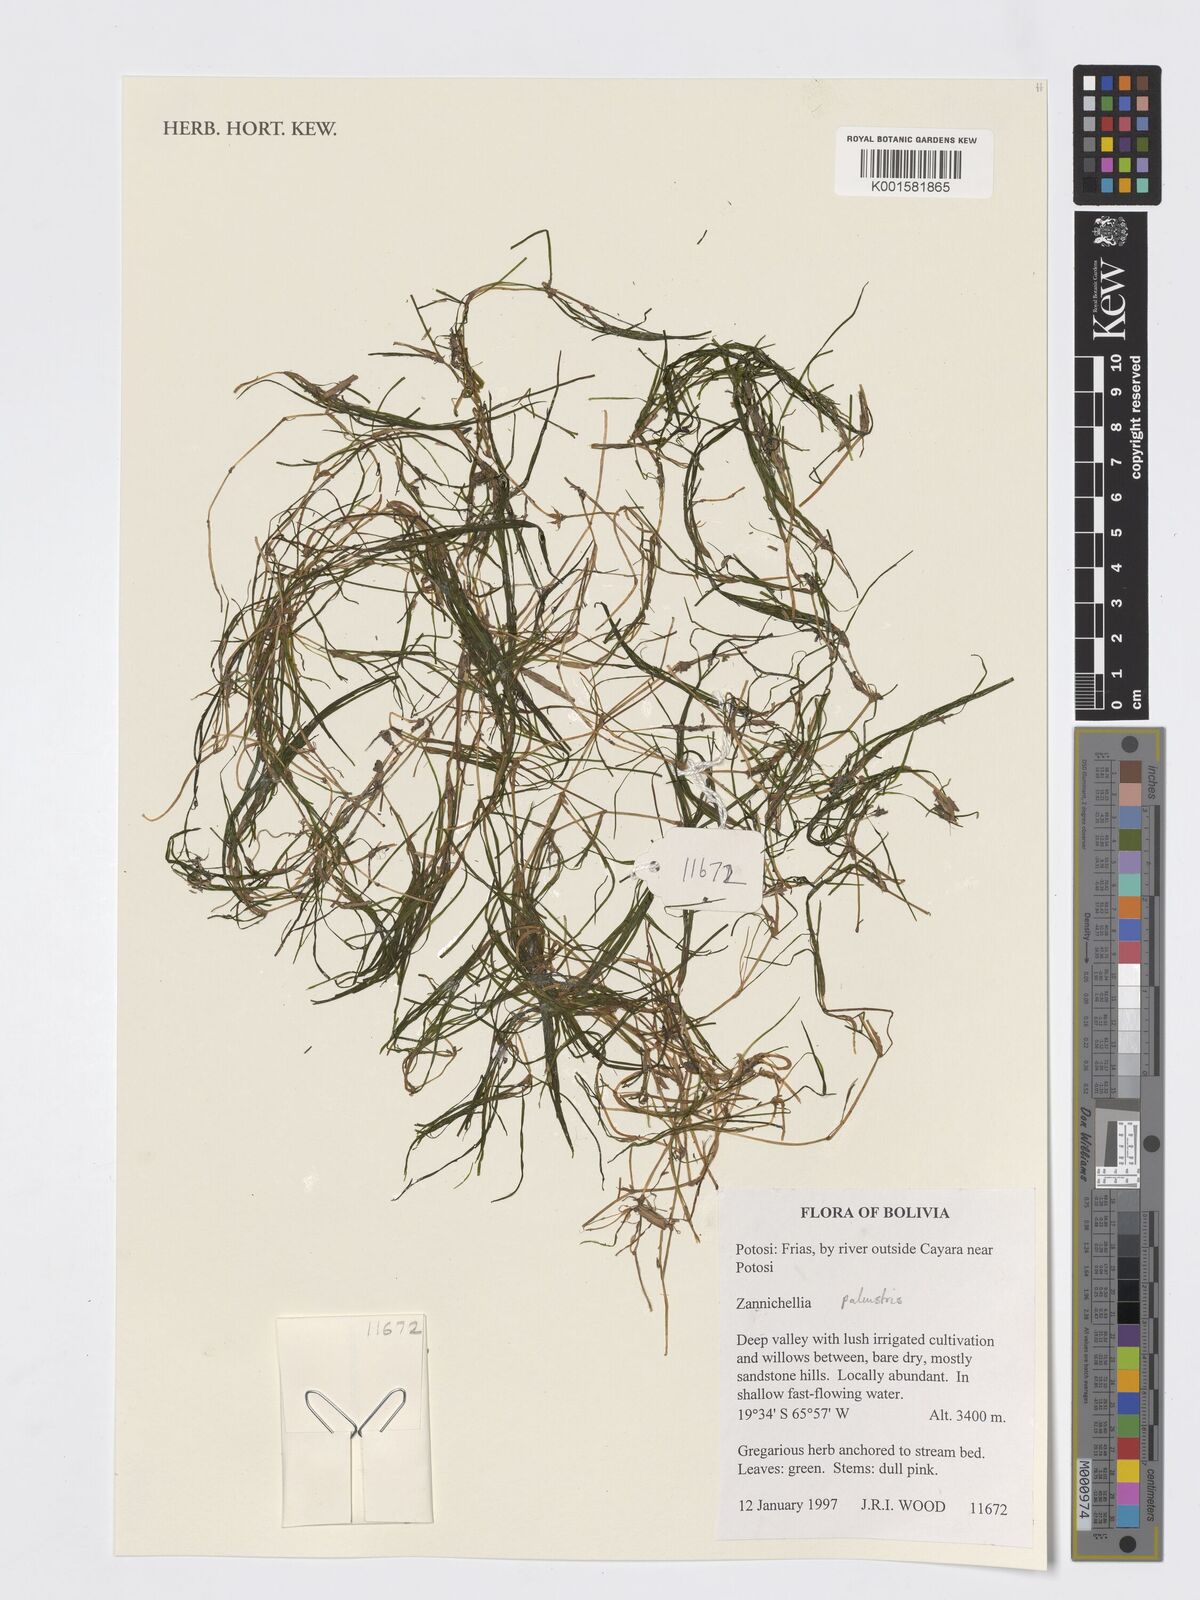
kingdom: Plantae
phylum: Tracheophyta
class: Liliopsida
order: Alismatales
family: Potamogetonaceae
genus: Zannichellia
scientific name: Zannichellia palustris
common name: Horned pondweed
